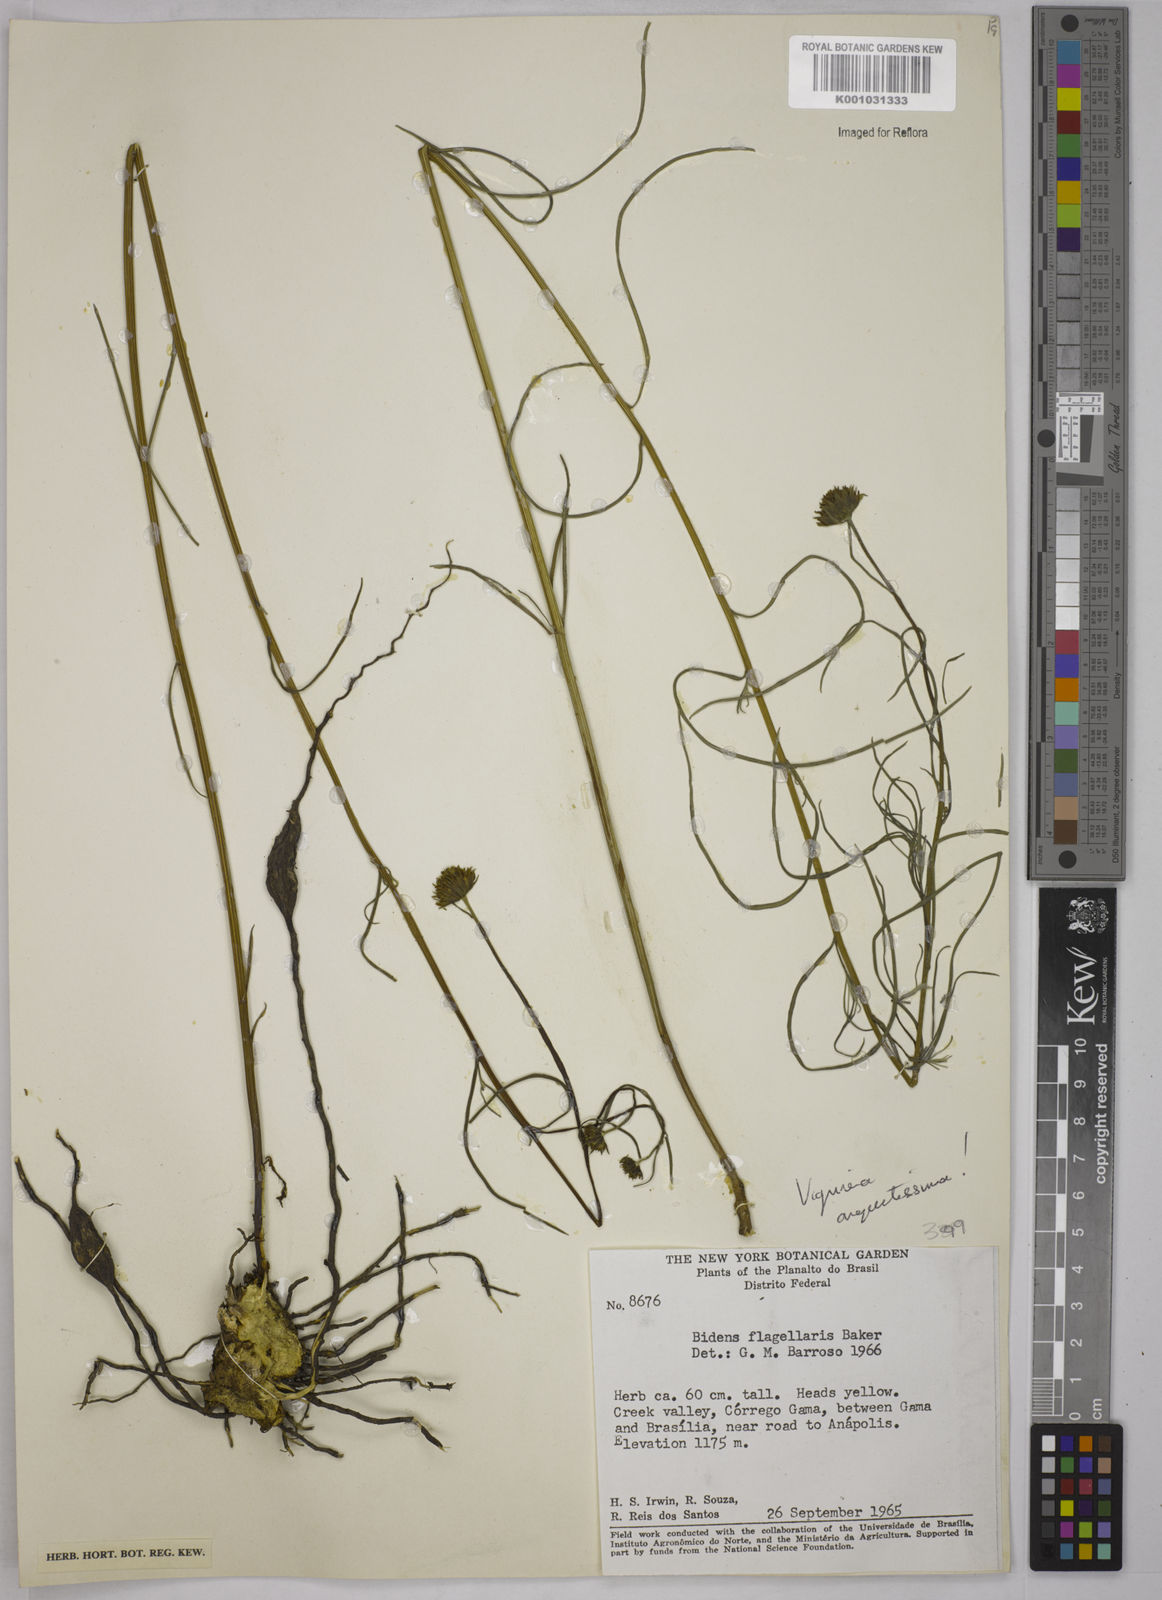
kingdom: Plantae
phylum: Tracheophyta
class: Magnoliopsida
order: Asterales
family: Asteraceae
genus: Aldama
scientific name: Aldama angustissima
